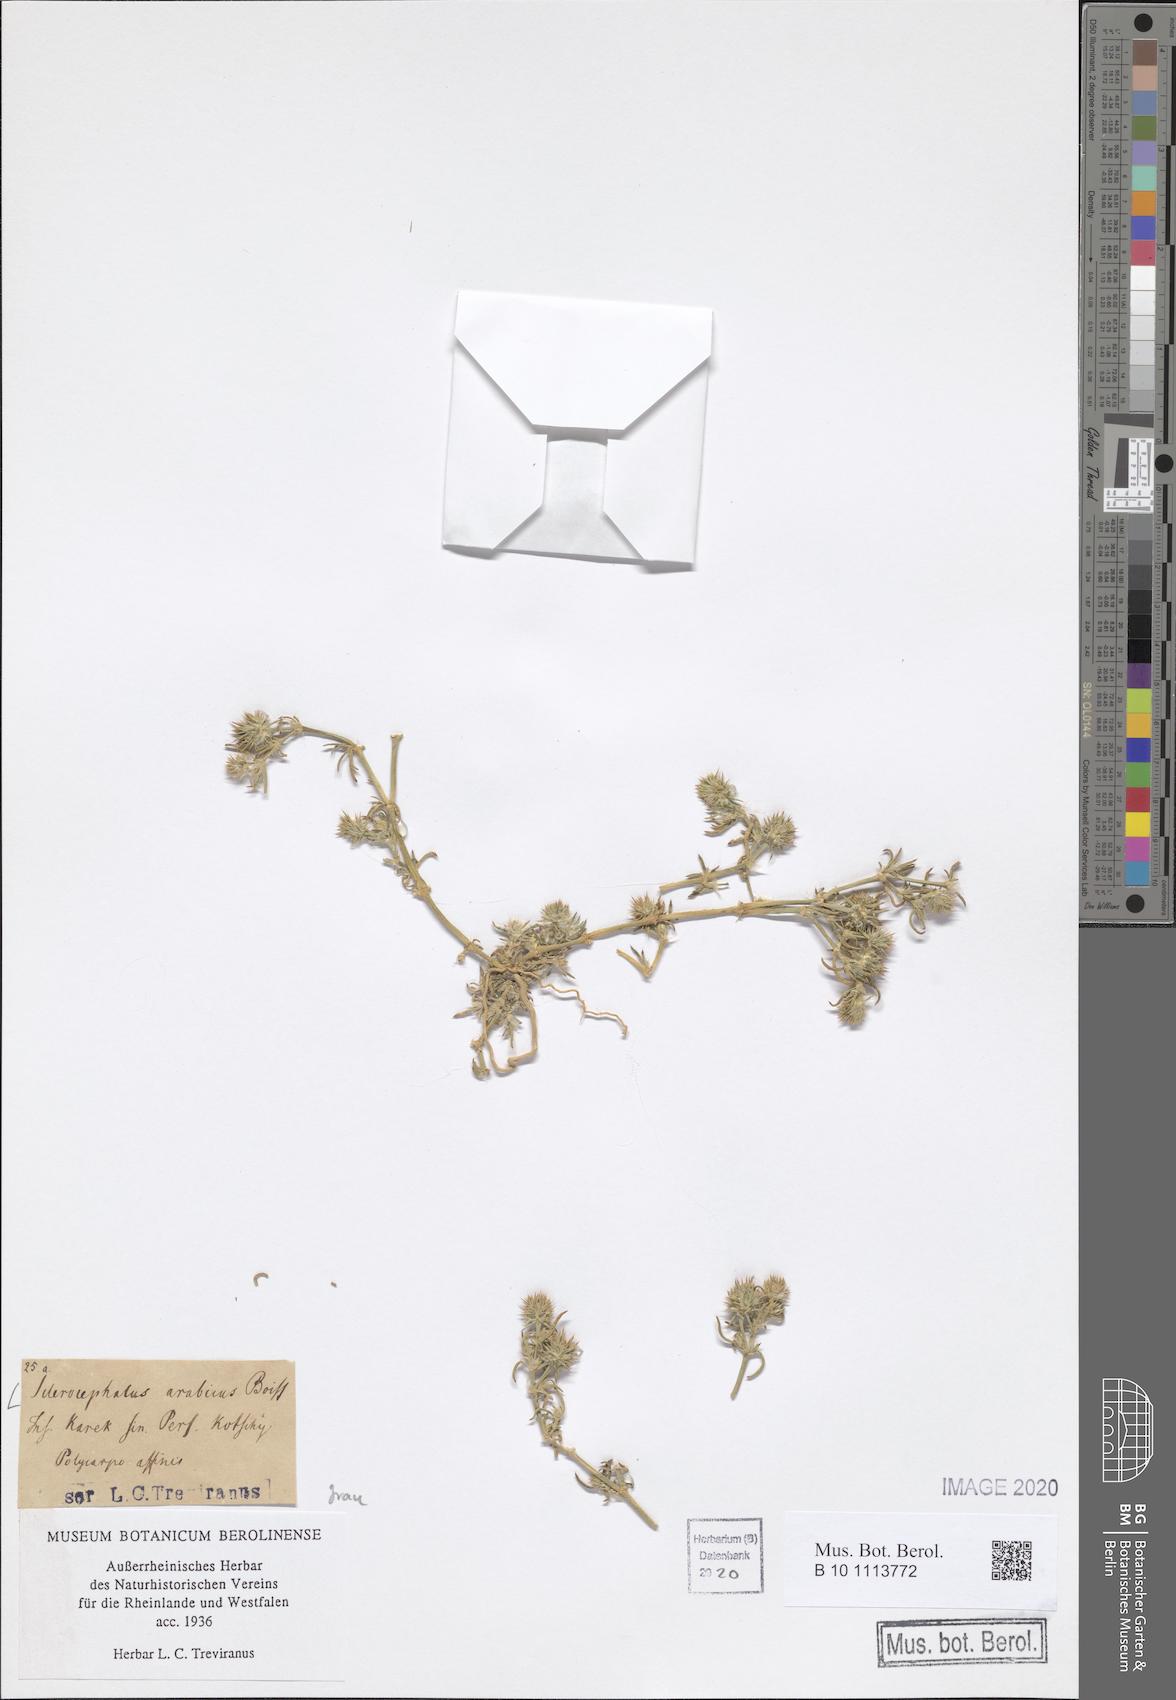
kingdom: Plantae
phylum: Tracheophyta
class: Magnoliopsida
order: Caryophyllales
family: Caryophyllaceae
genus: Gymnocarpos
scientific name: Gymnocarpos sclerocephalus
